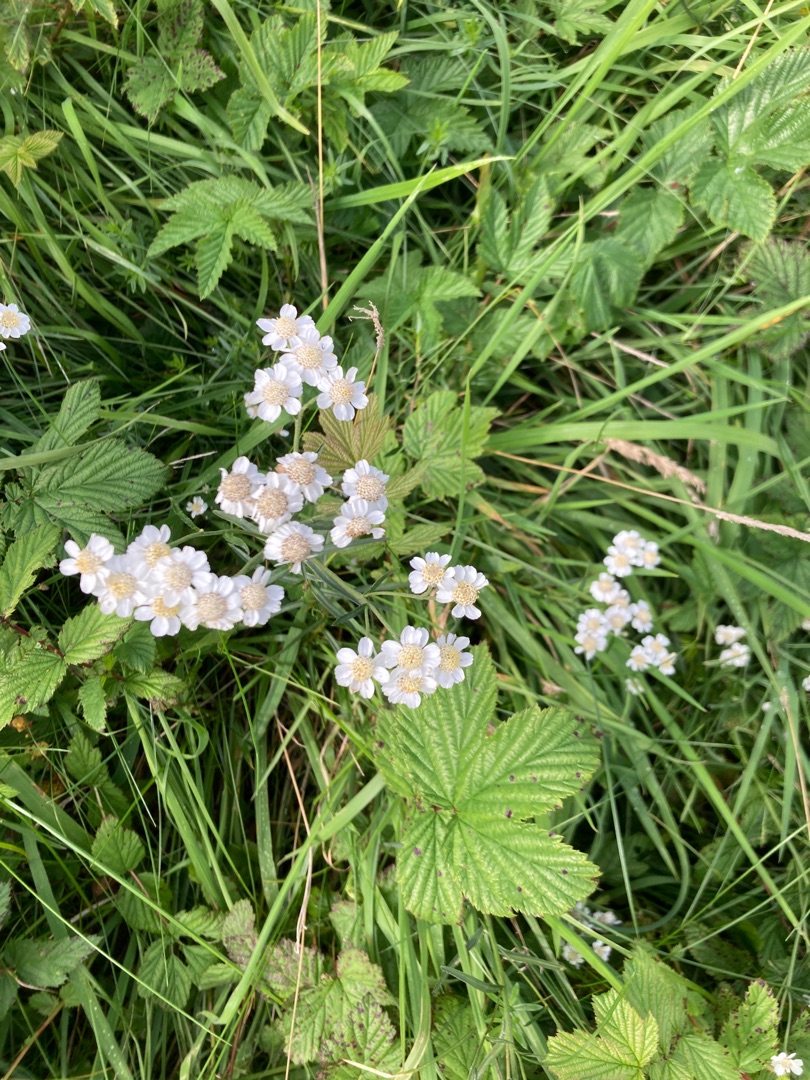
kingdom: Plantae
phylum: Tracheophyta
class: Magnoliopsida
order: Asterales
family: Asteraceae
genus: Achillea
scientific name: Achillea ptarmica
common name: Nyse-røllike
